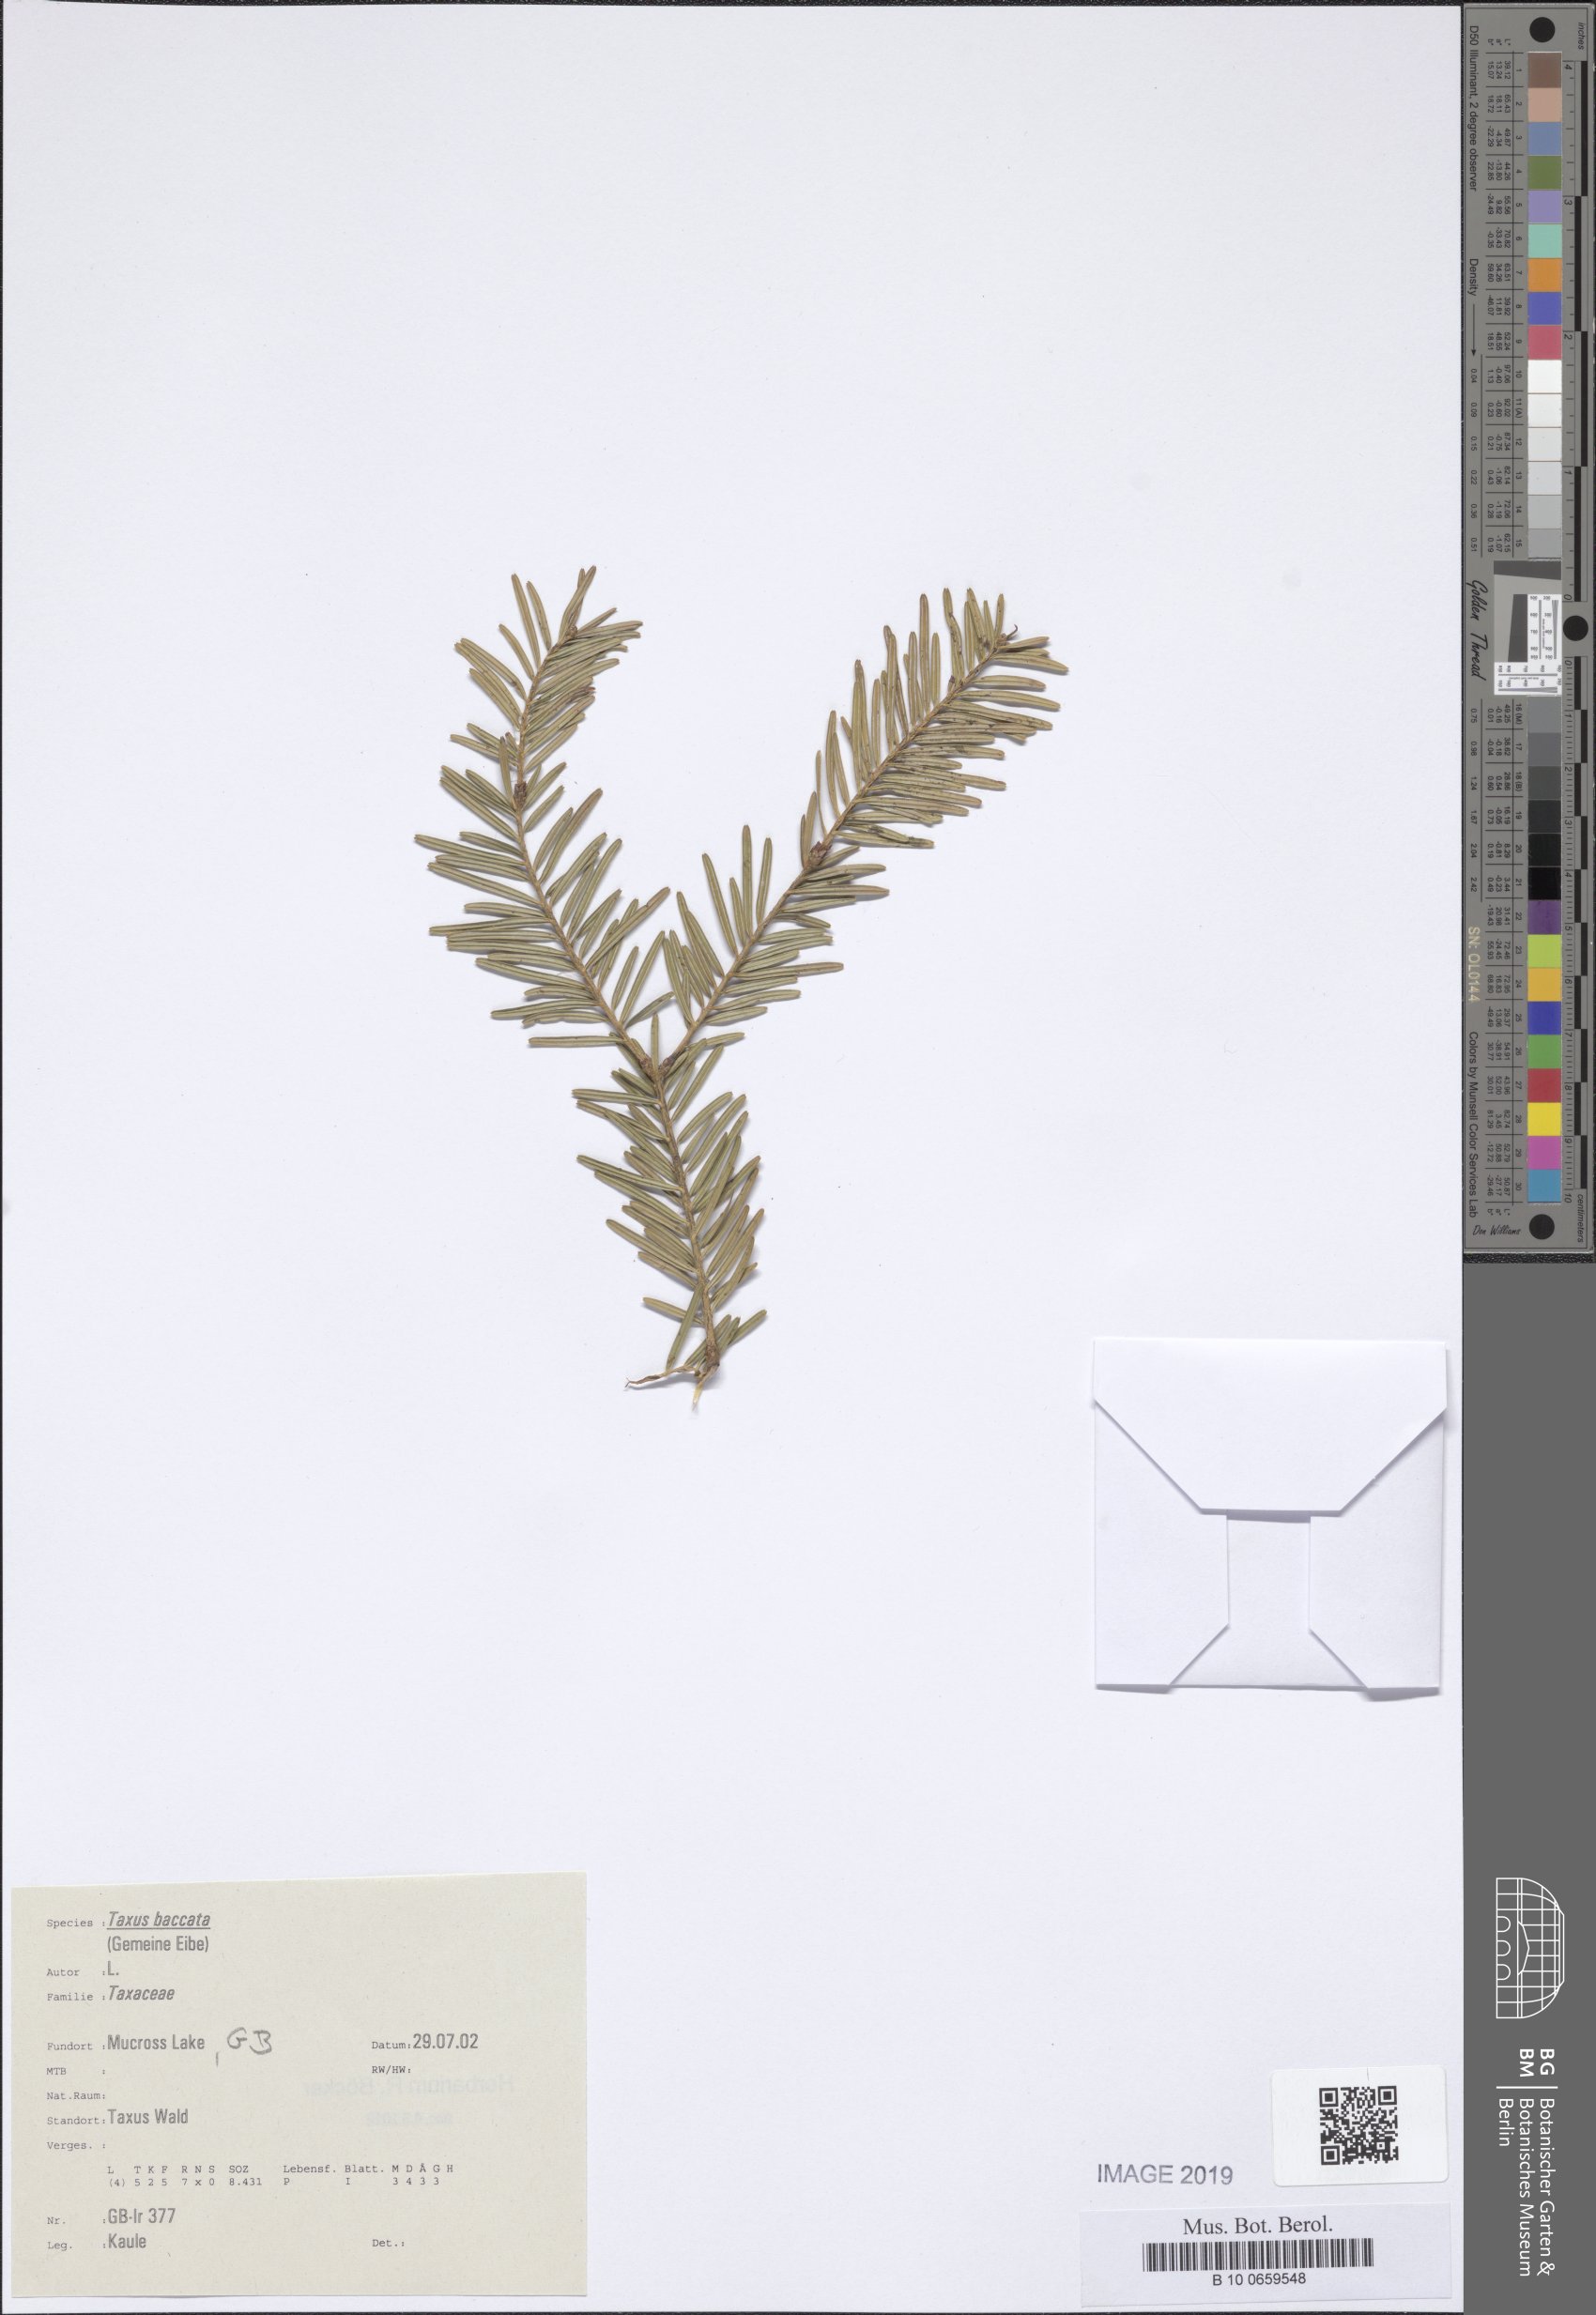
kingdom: Plantae
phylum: Tracheophyta
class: Pinopsida
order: Pinales
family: Pinaceae
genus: Pseudotsuga
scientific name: Pseudotsuga
